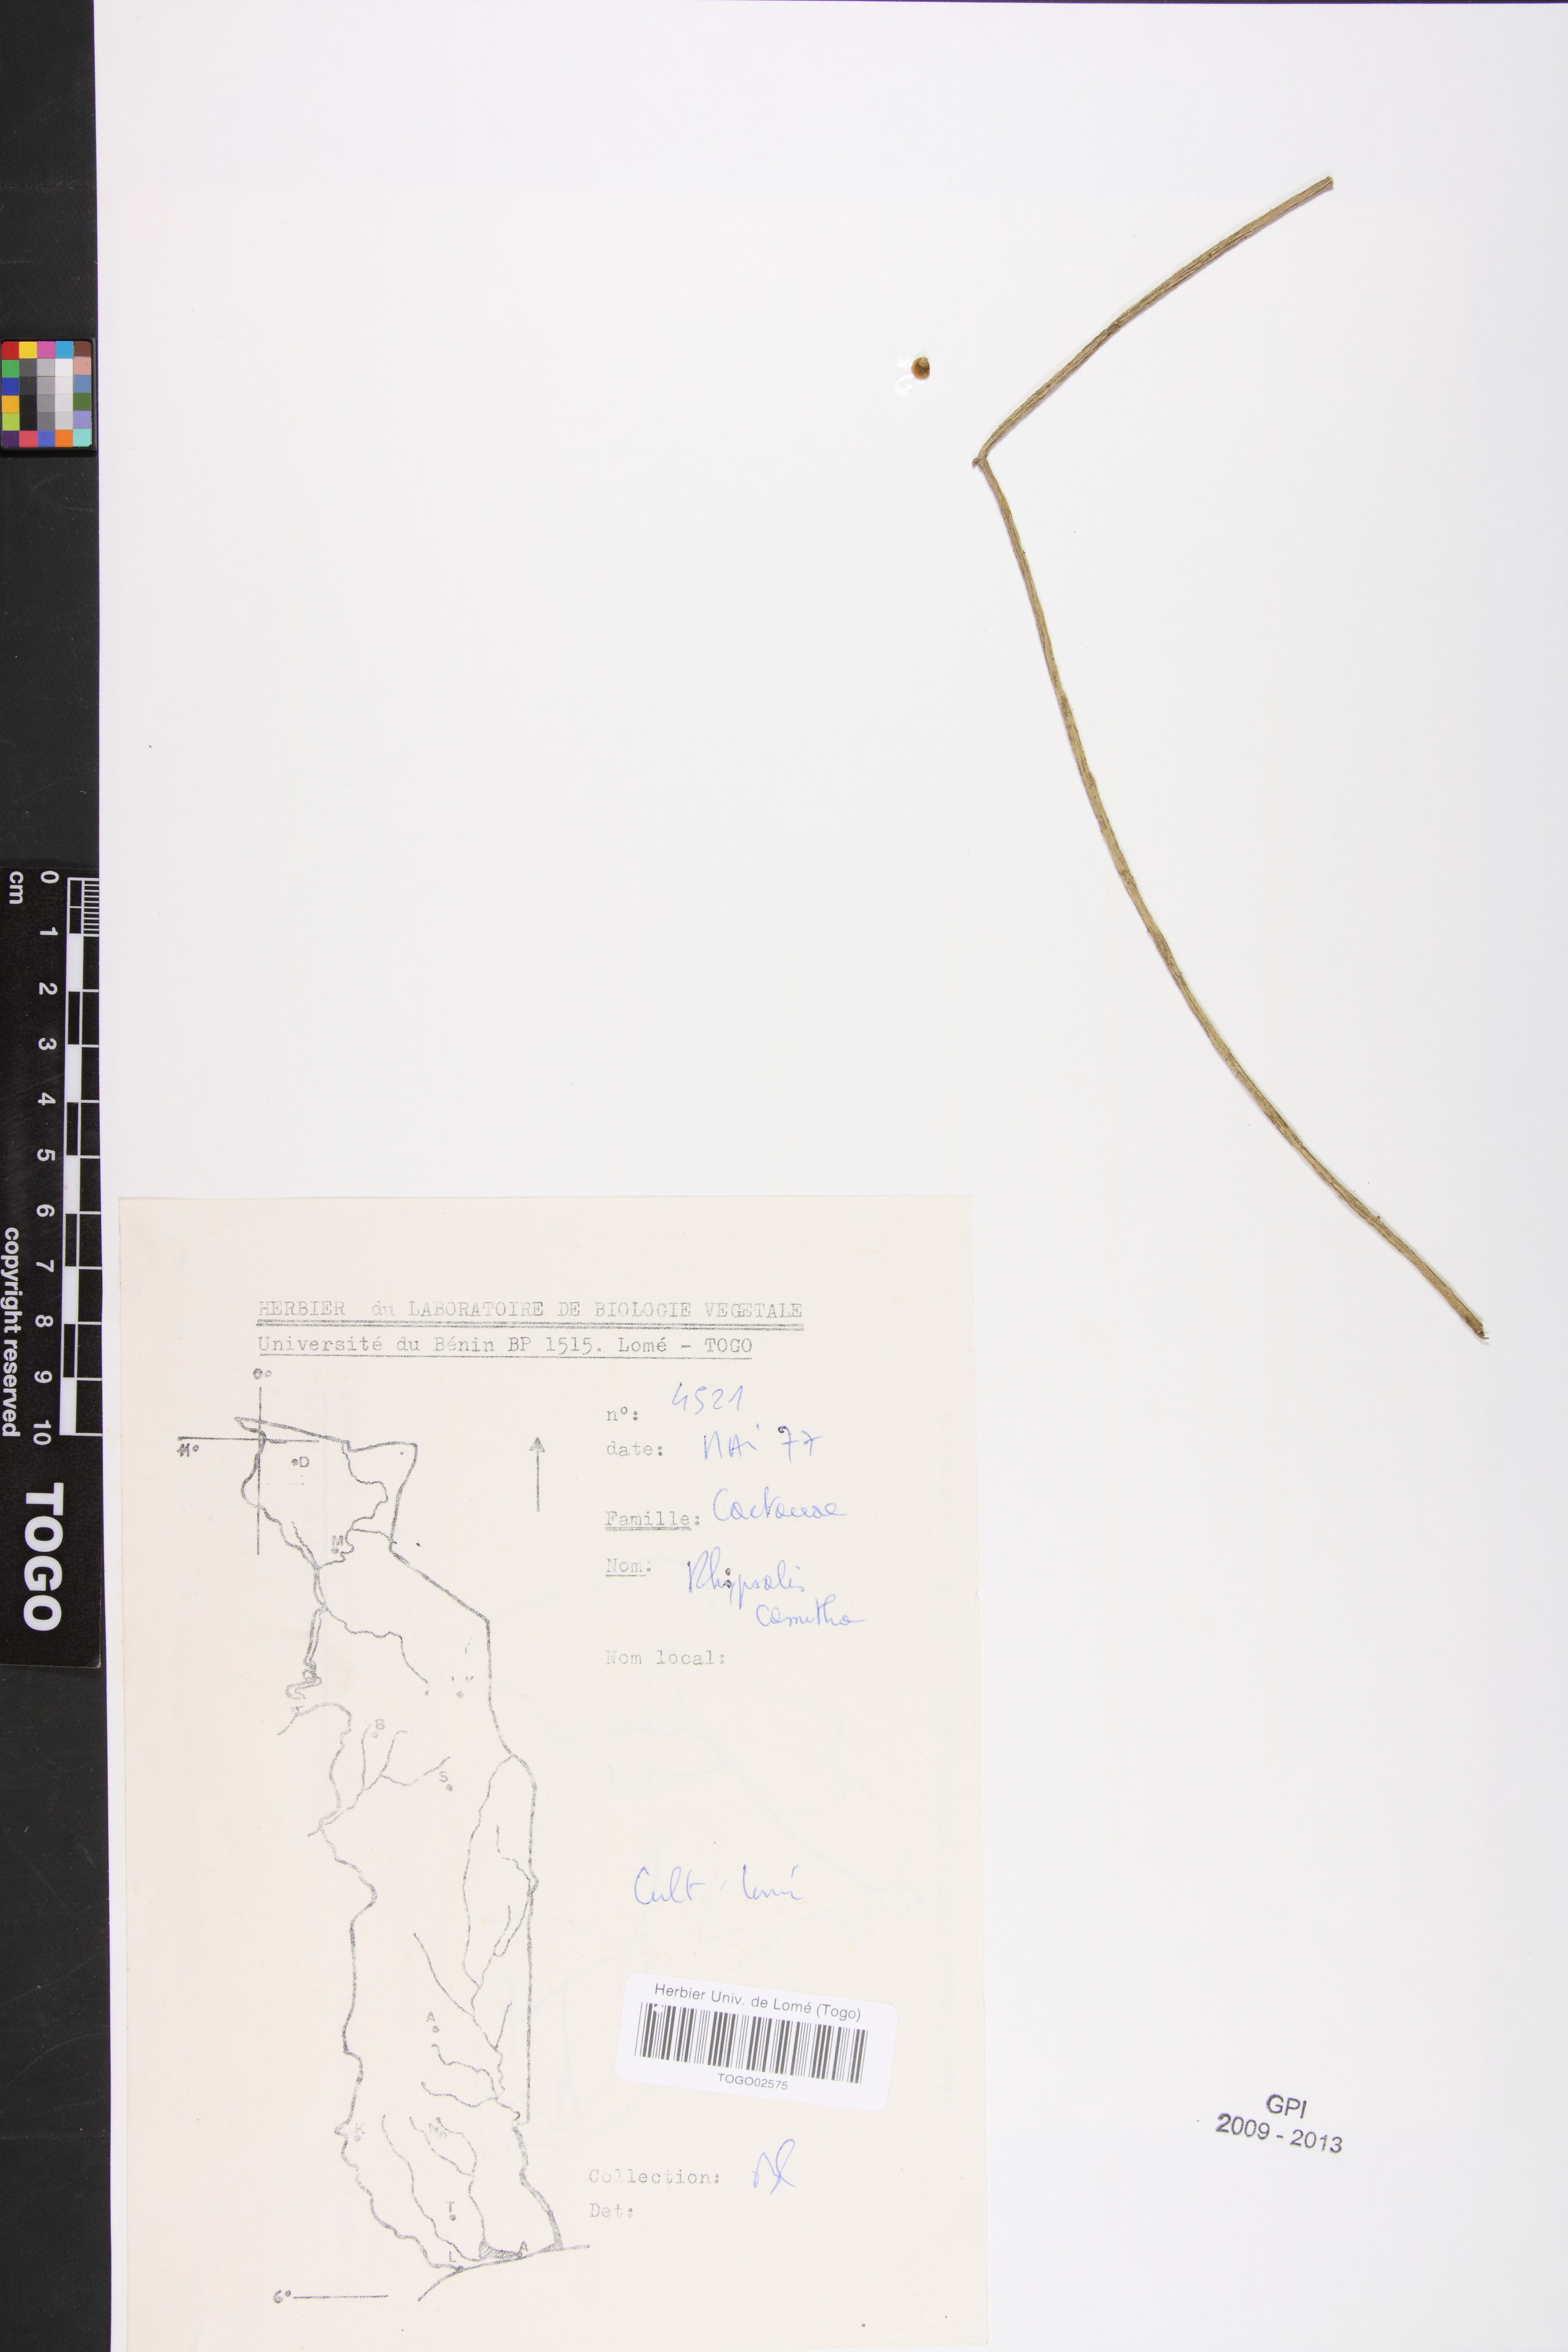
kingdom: Plantae
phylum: Tracheophyta
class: Magnoliopsida
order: Caryophyllales
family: Cactaceae
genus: Rhipsalis
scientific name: Rhipsalis baccifera
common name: Mistletoe cactus
